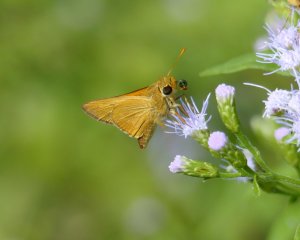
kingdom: Animalia
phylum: Arthropoda
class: Insecta
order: Lepidoptera
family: Hesperiidae
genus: Mellana
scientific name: Mellana eulogius
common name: Common Mellana
